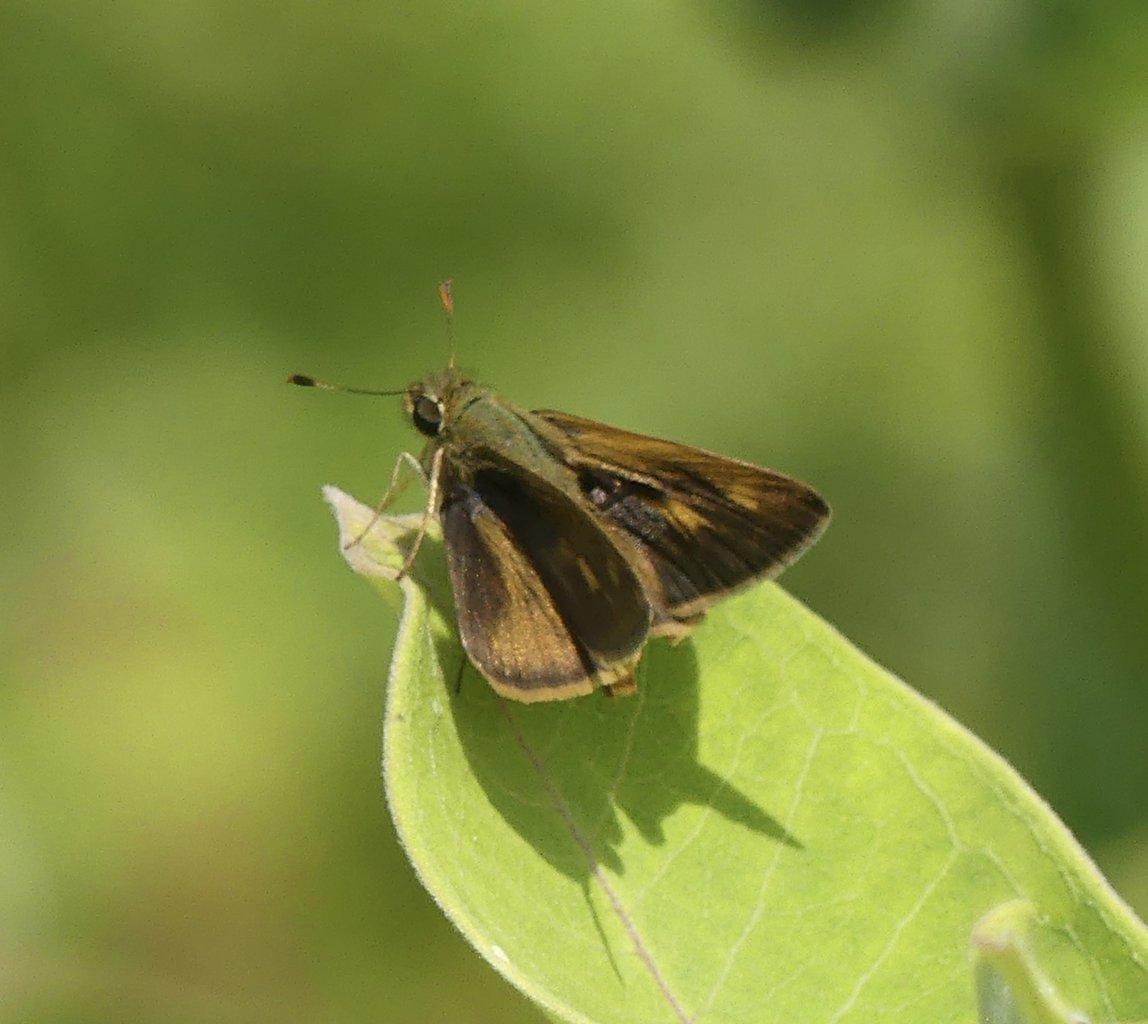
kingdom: Animalia
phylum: Arthropoda
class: Insecta
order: Lepidoptera
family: Hesperiidae
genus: Polites
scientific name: Polites egeremet
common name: Northern Broken-Dash
